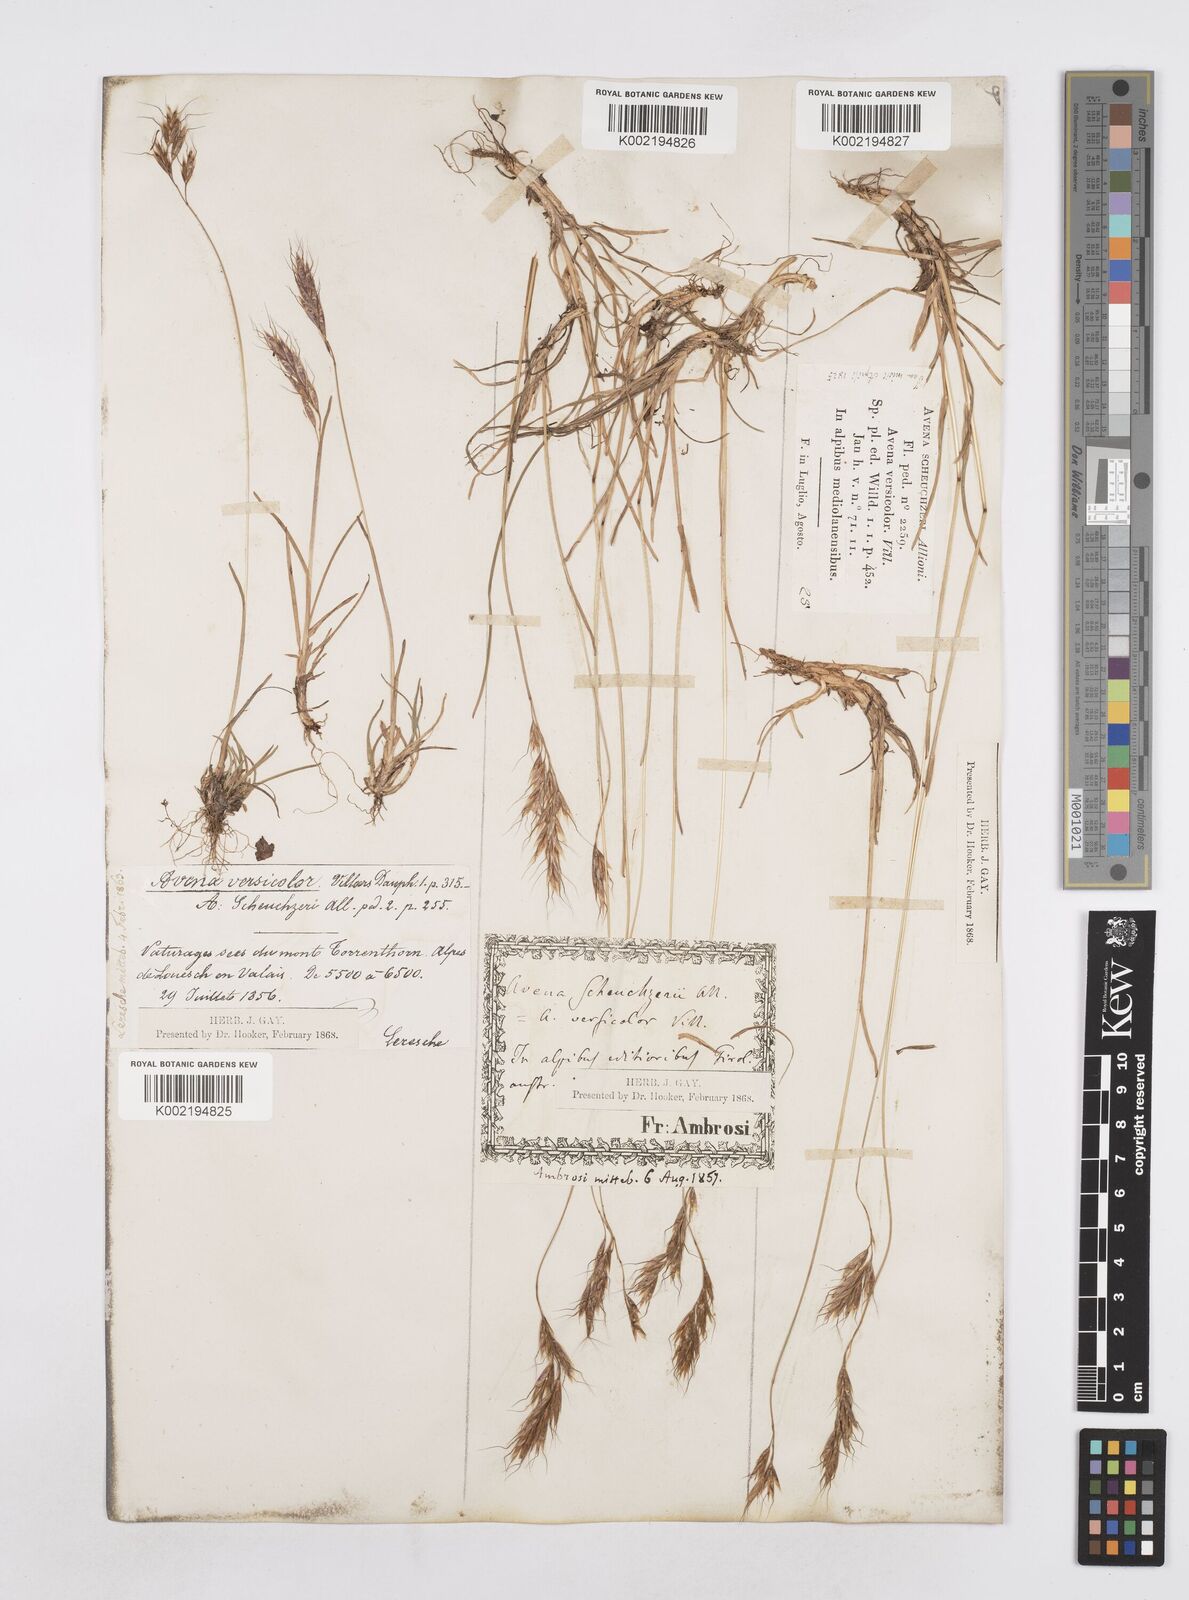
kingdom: Plantae
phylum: Tracheophyta
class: Liliopsida
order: Poales
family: Poaceae
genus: Helictotrichon
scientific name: Helictotrichon
